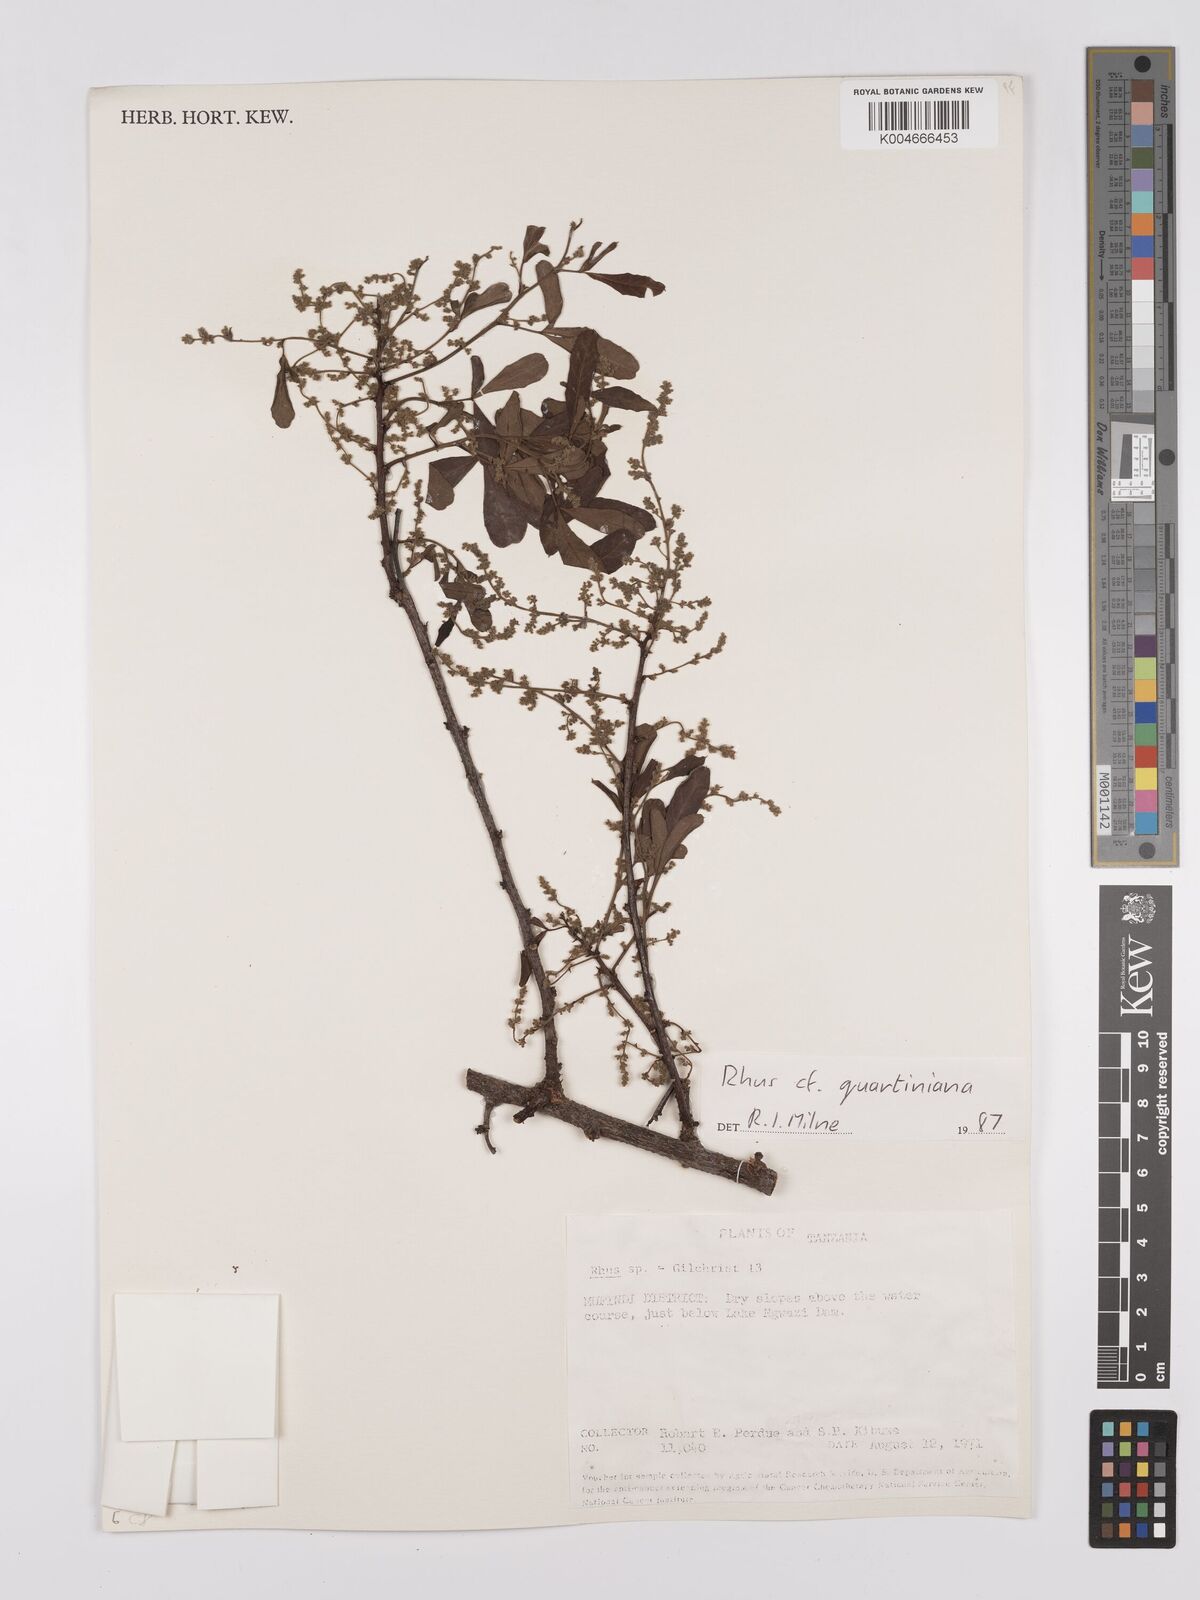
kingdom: Plantae
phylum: Tracheophyta
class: Magnoliopsida
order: Sapindales
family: Anacardiaceae
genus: Searsia
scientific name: Searsia quartiniana
